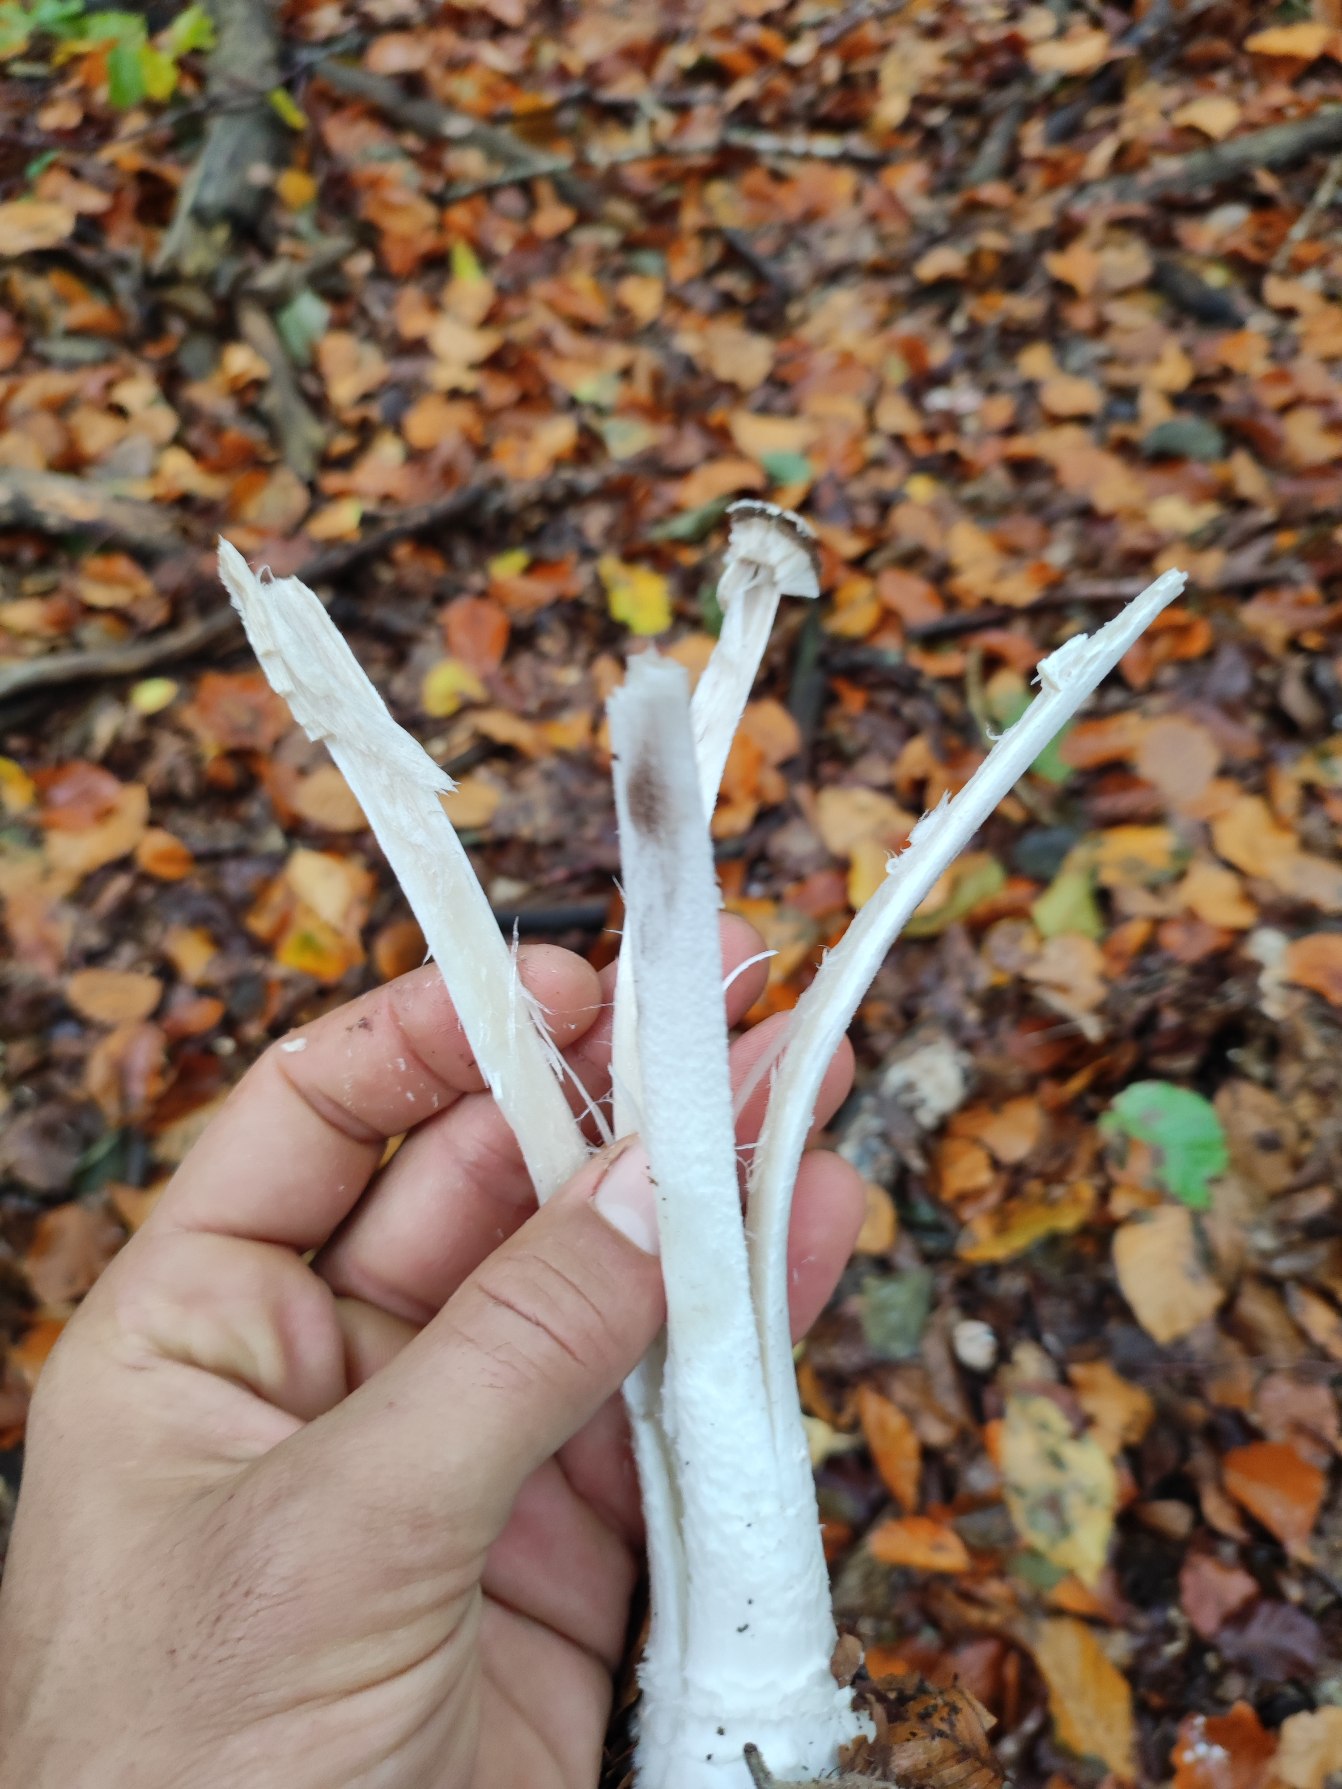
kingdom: Fungi
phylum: Basidiomycota
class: Agaricomycetes
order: Agaricales
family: Psathyrellaceae
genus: Coprinopsis
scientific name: Coprinopsis picacea
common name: Skade-blækhat
